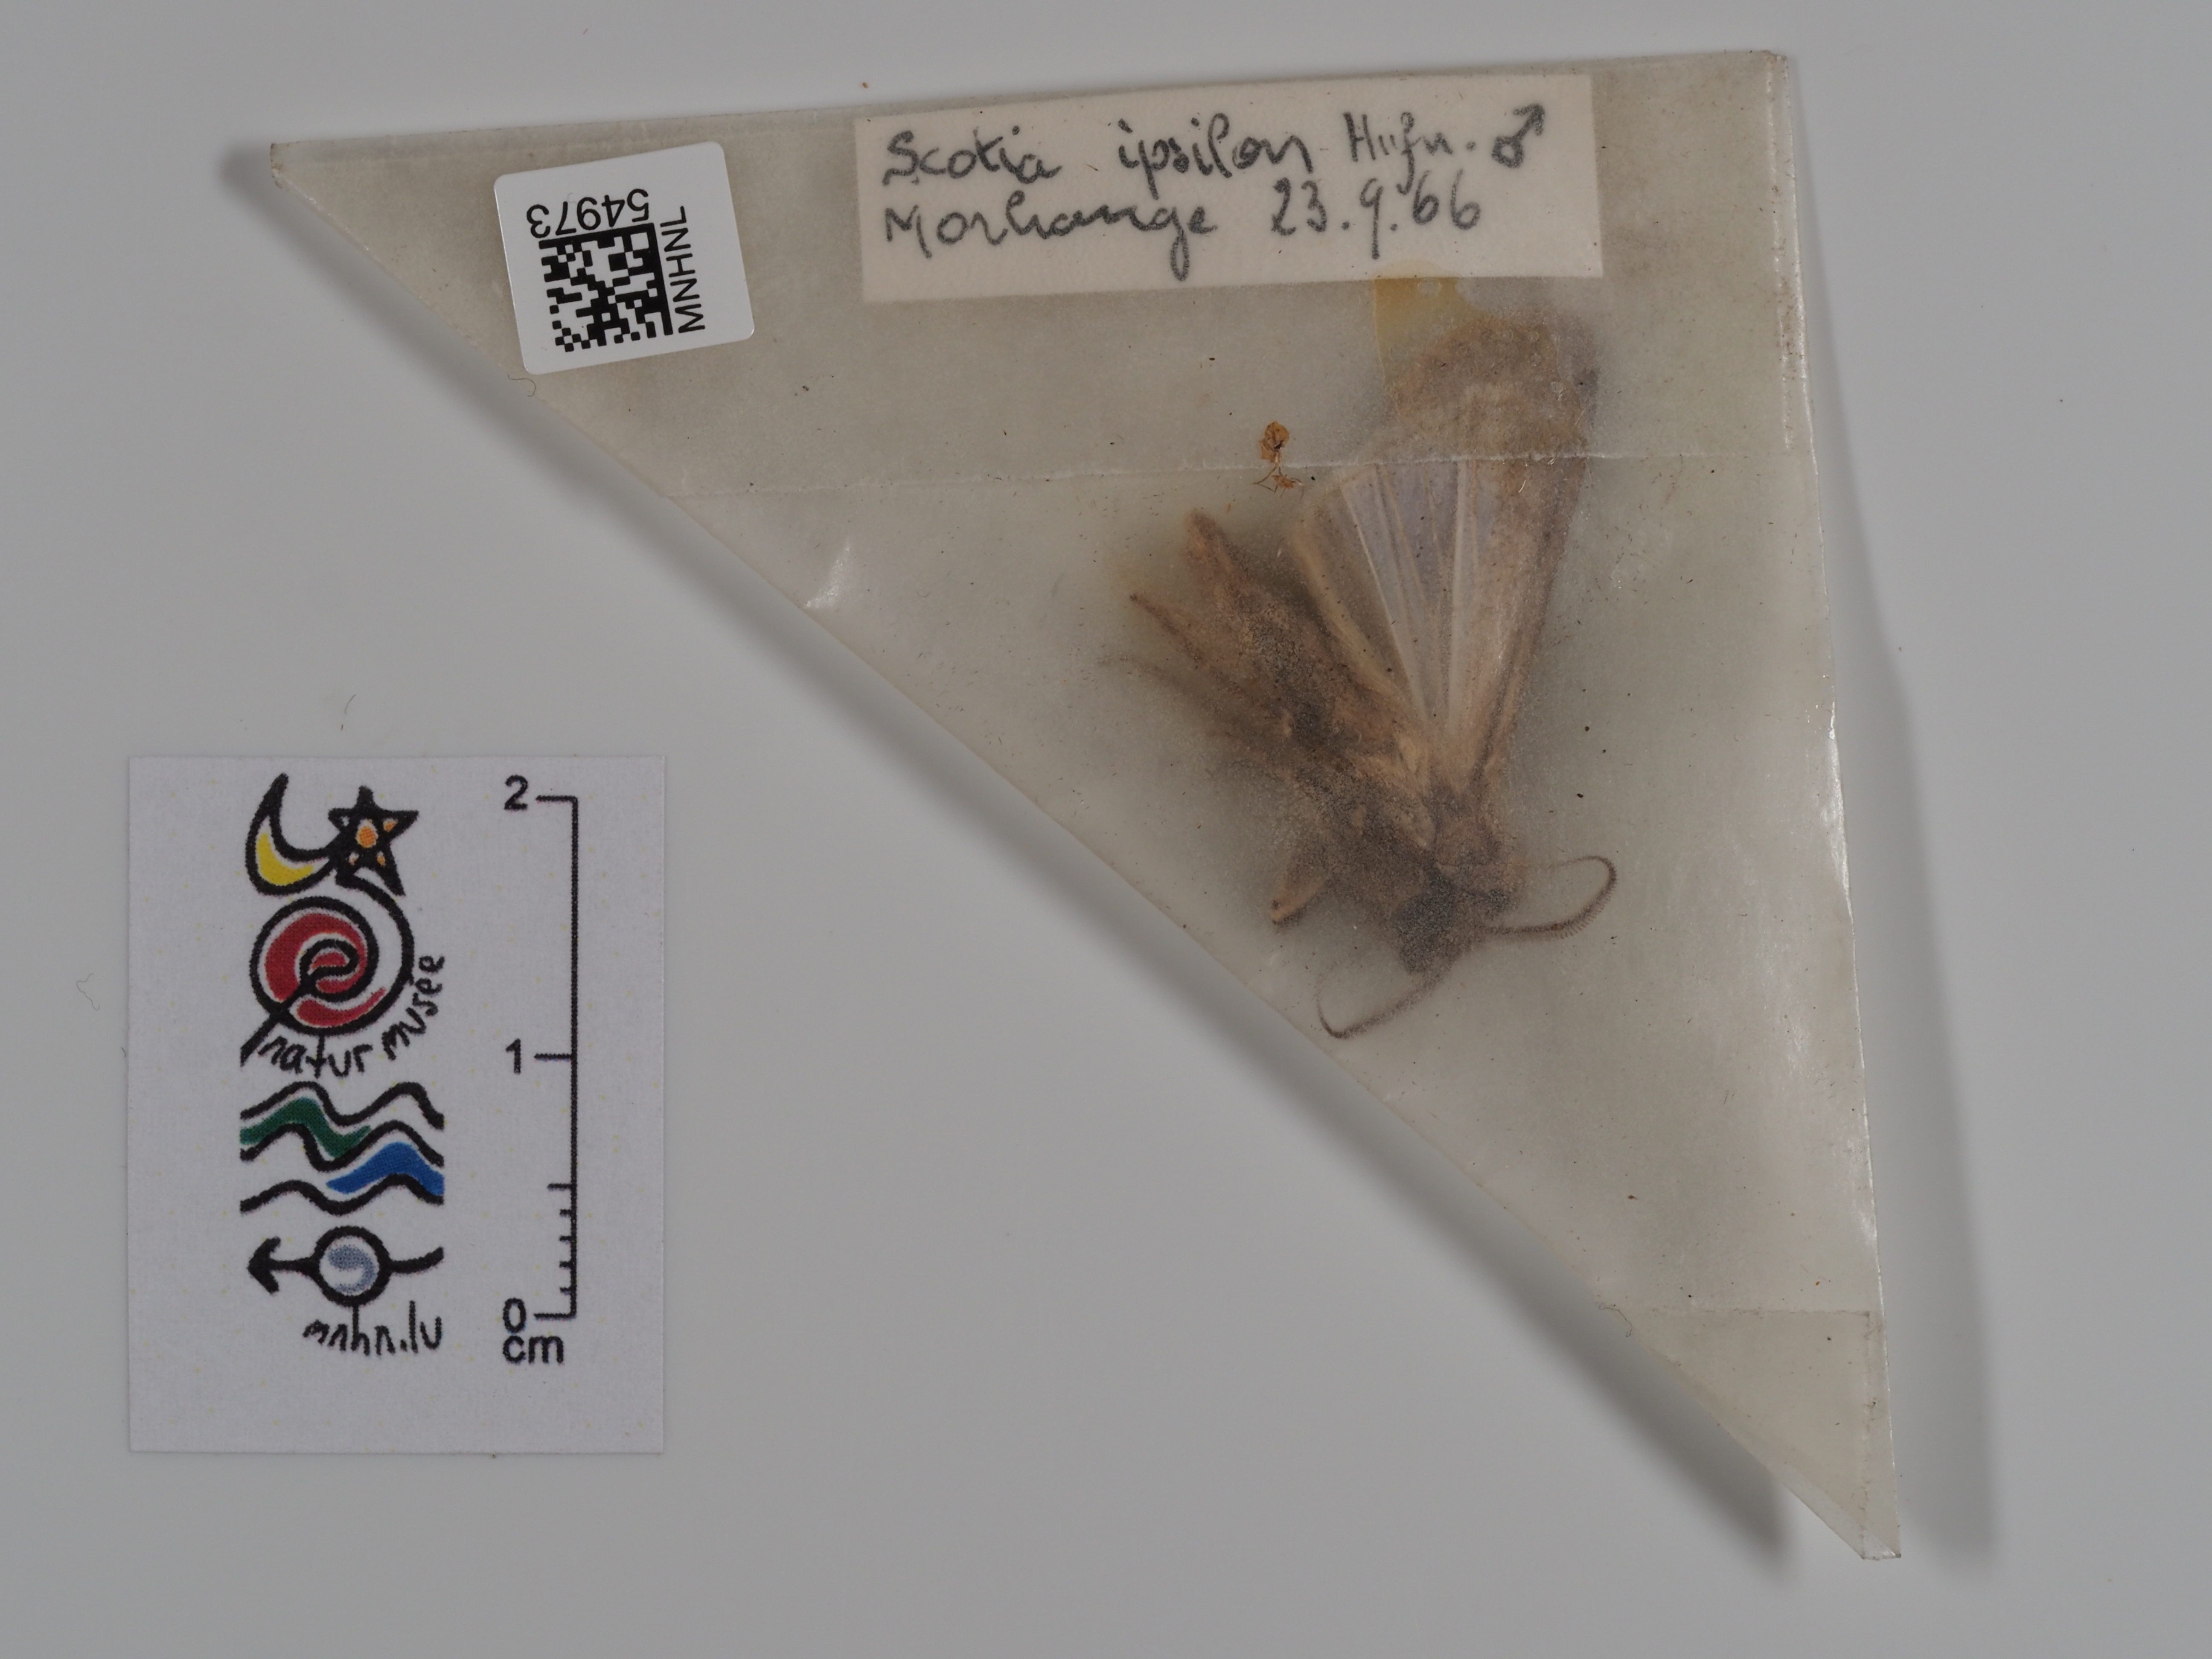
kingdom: Animalia
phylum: Arthropoda
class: Insecta
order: Lepidoptera
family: Noctuidae
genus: Agrotis
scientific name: Agrotis ipsilon
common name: Dark sword-grass
